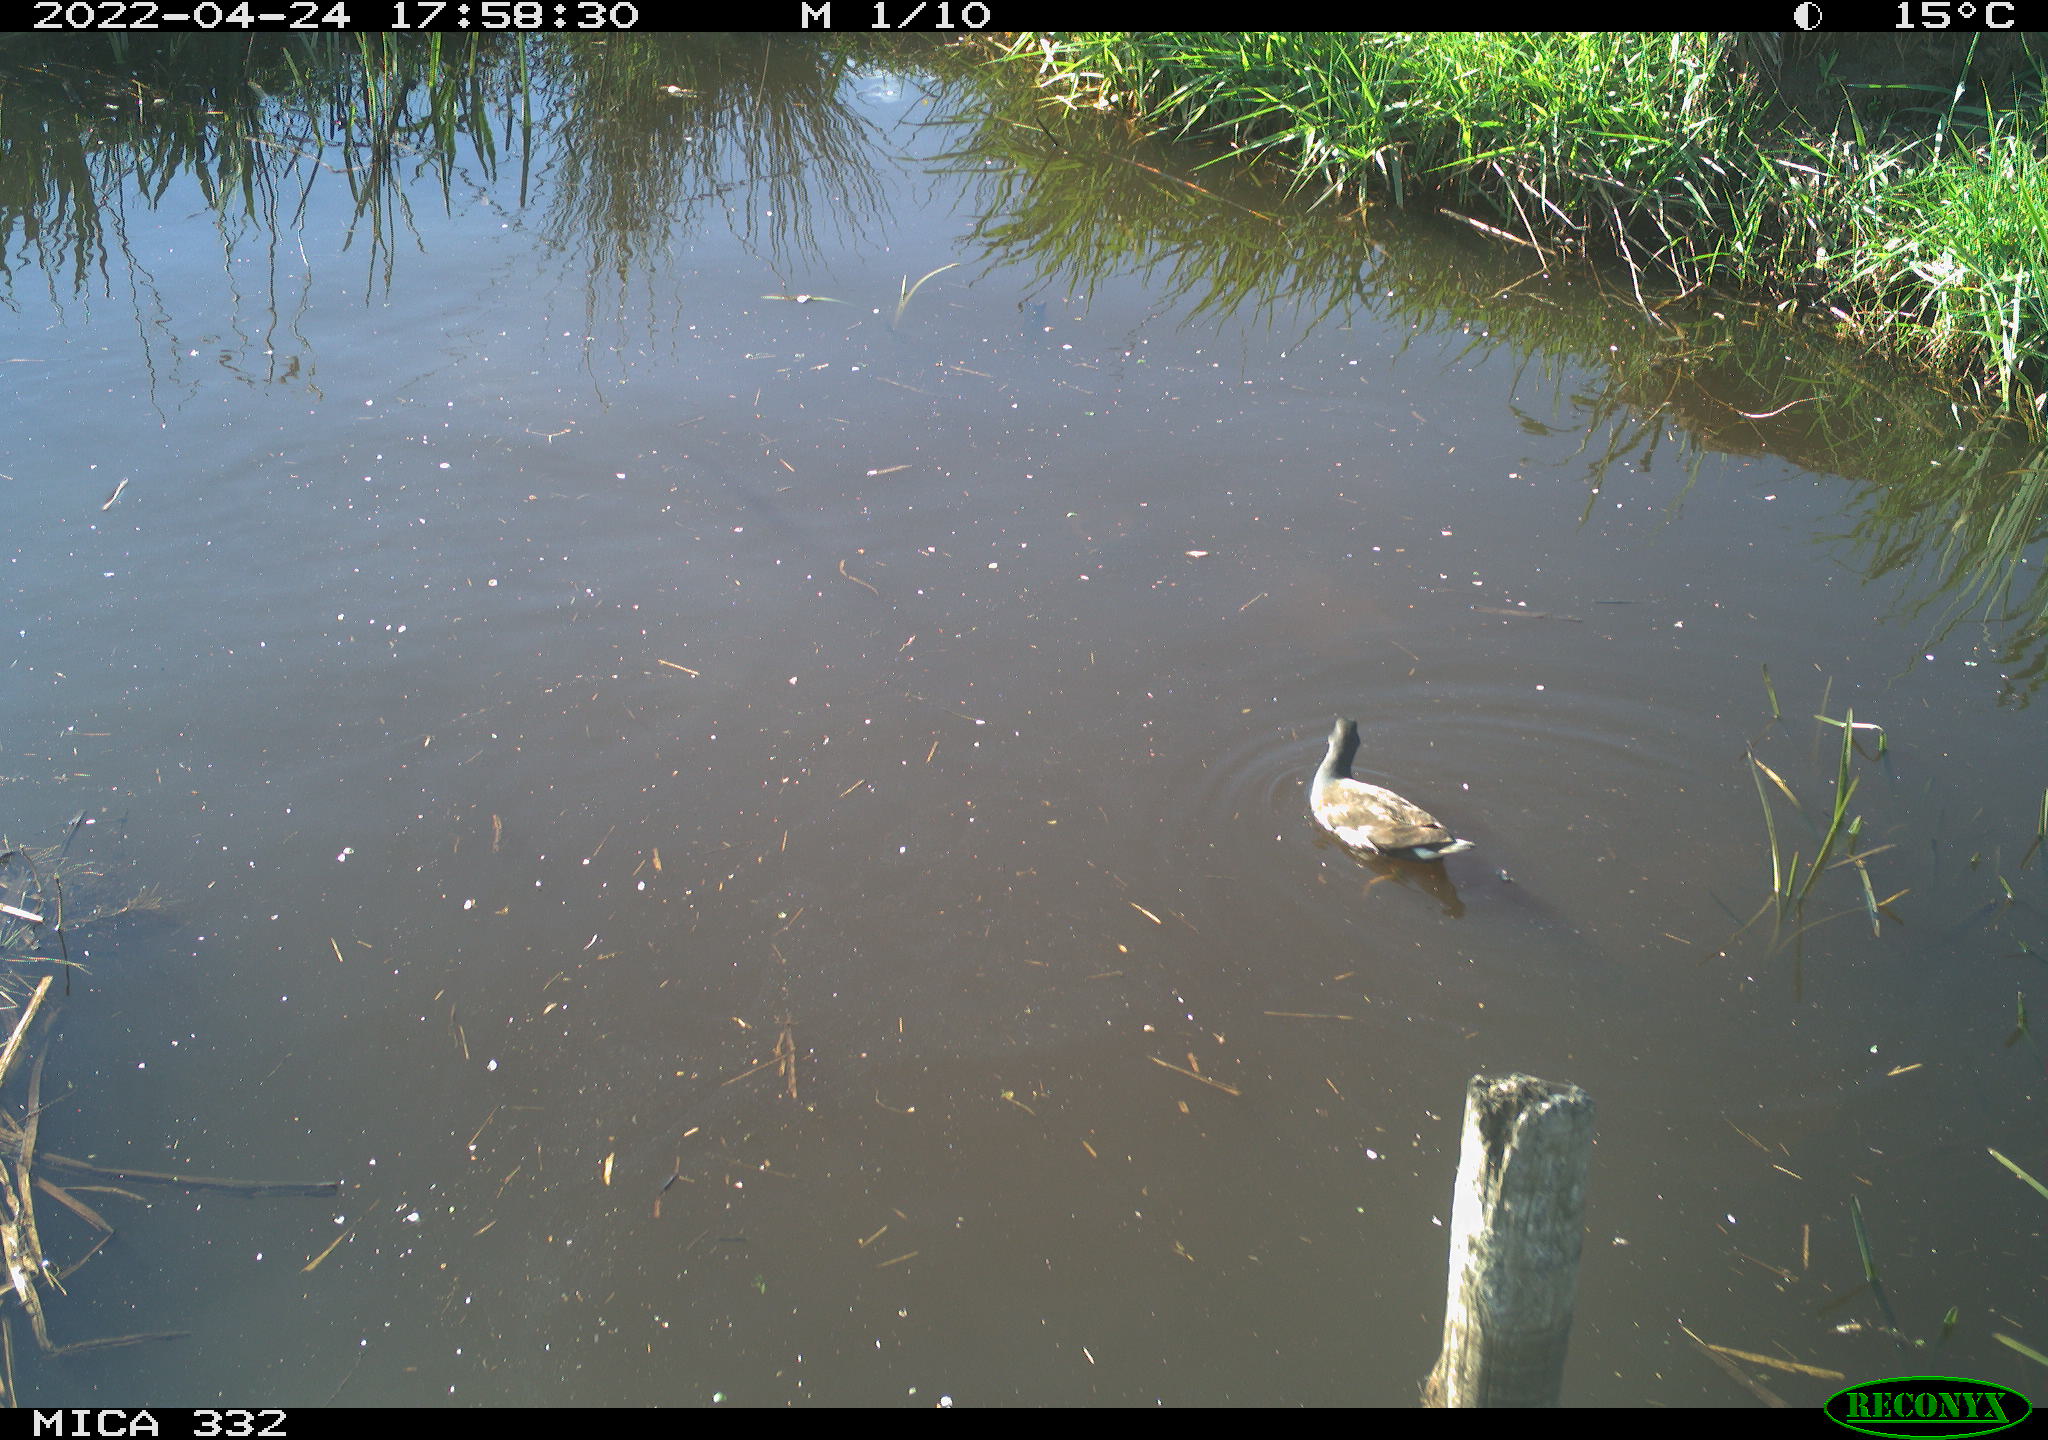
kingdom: Animalia
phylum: Chordata
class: Aves
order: Gruiformes
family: Rallidae
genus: Gallinula
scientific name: Gallinula chloropus
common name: Common moorhen
